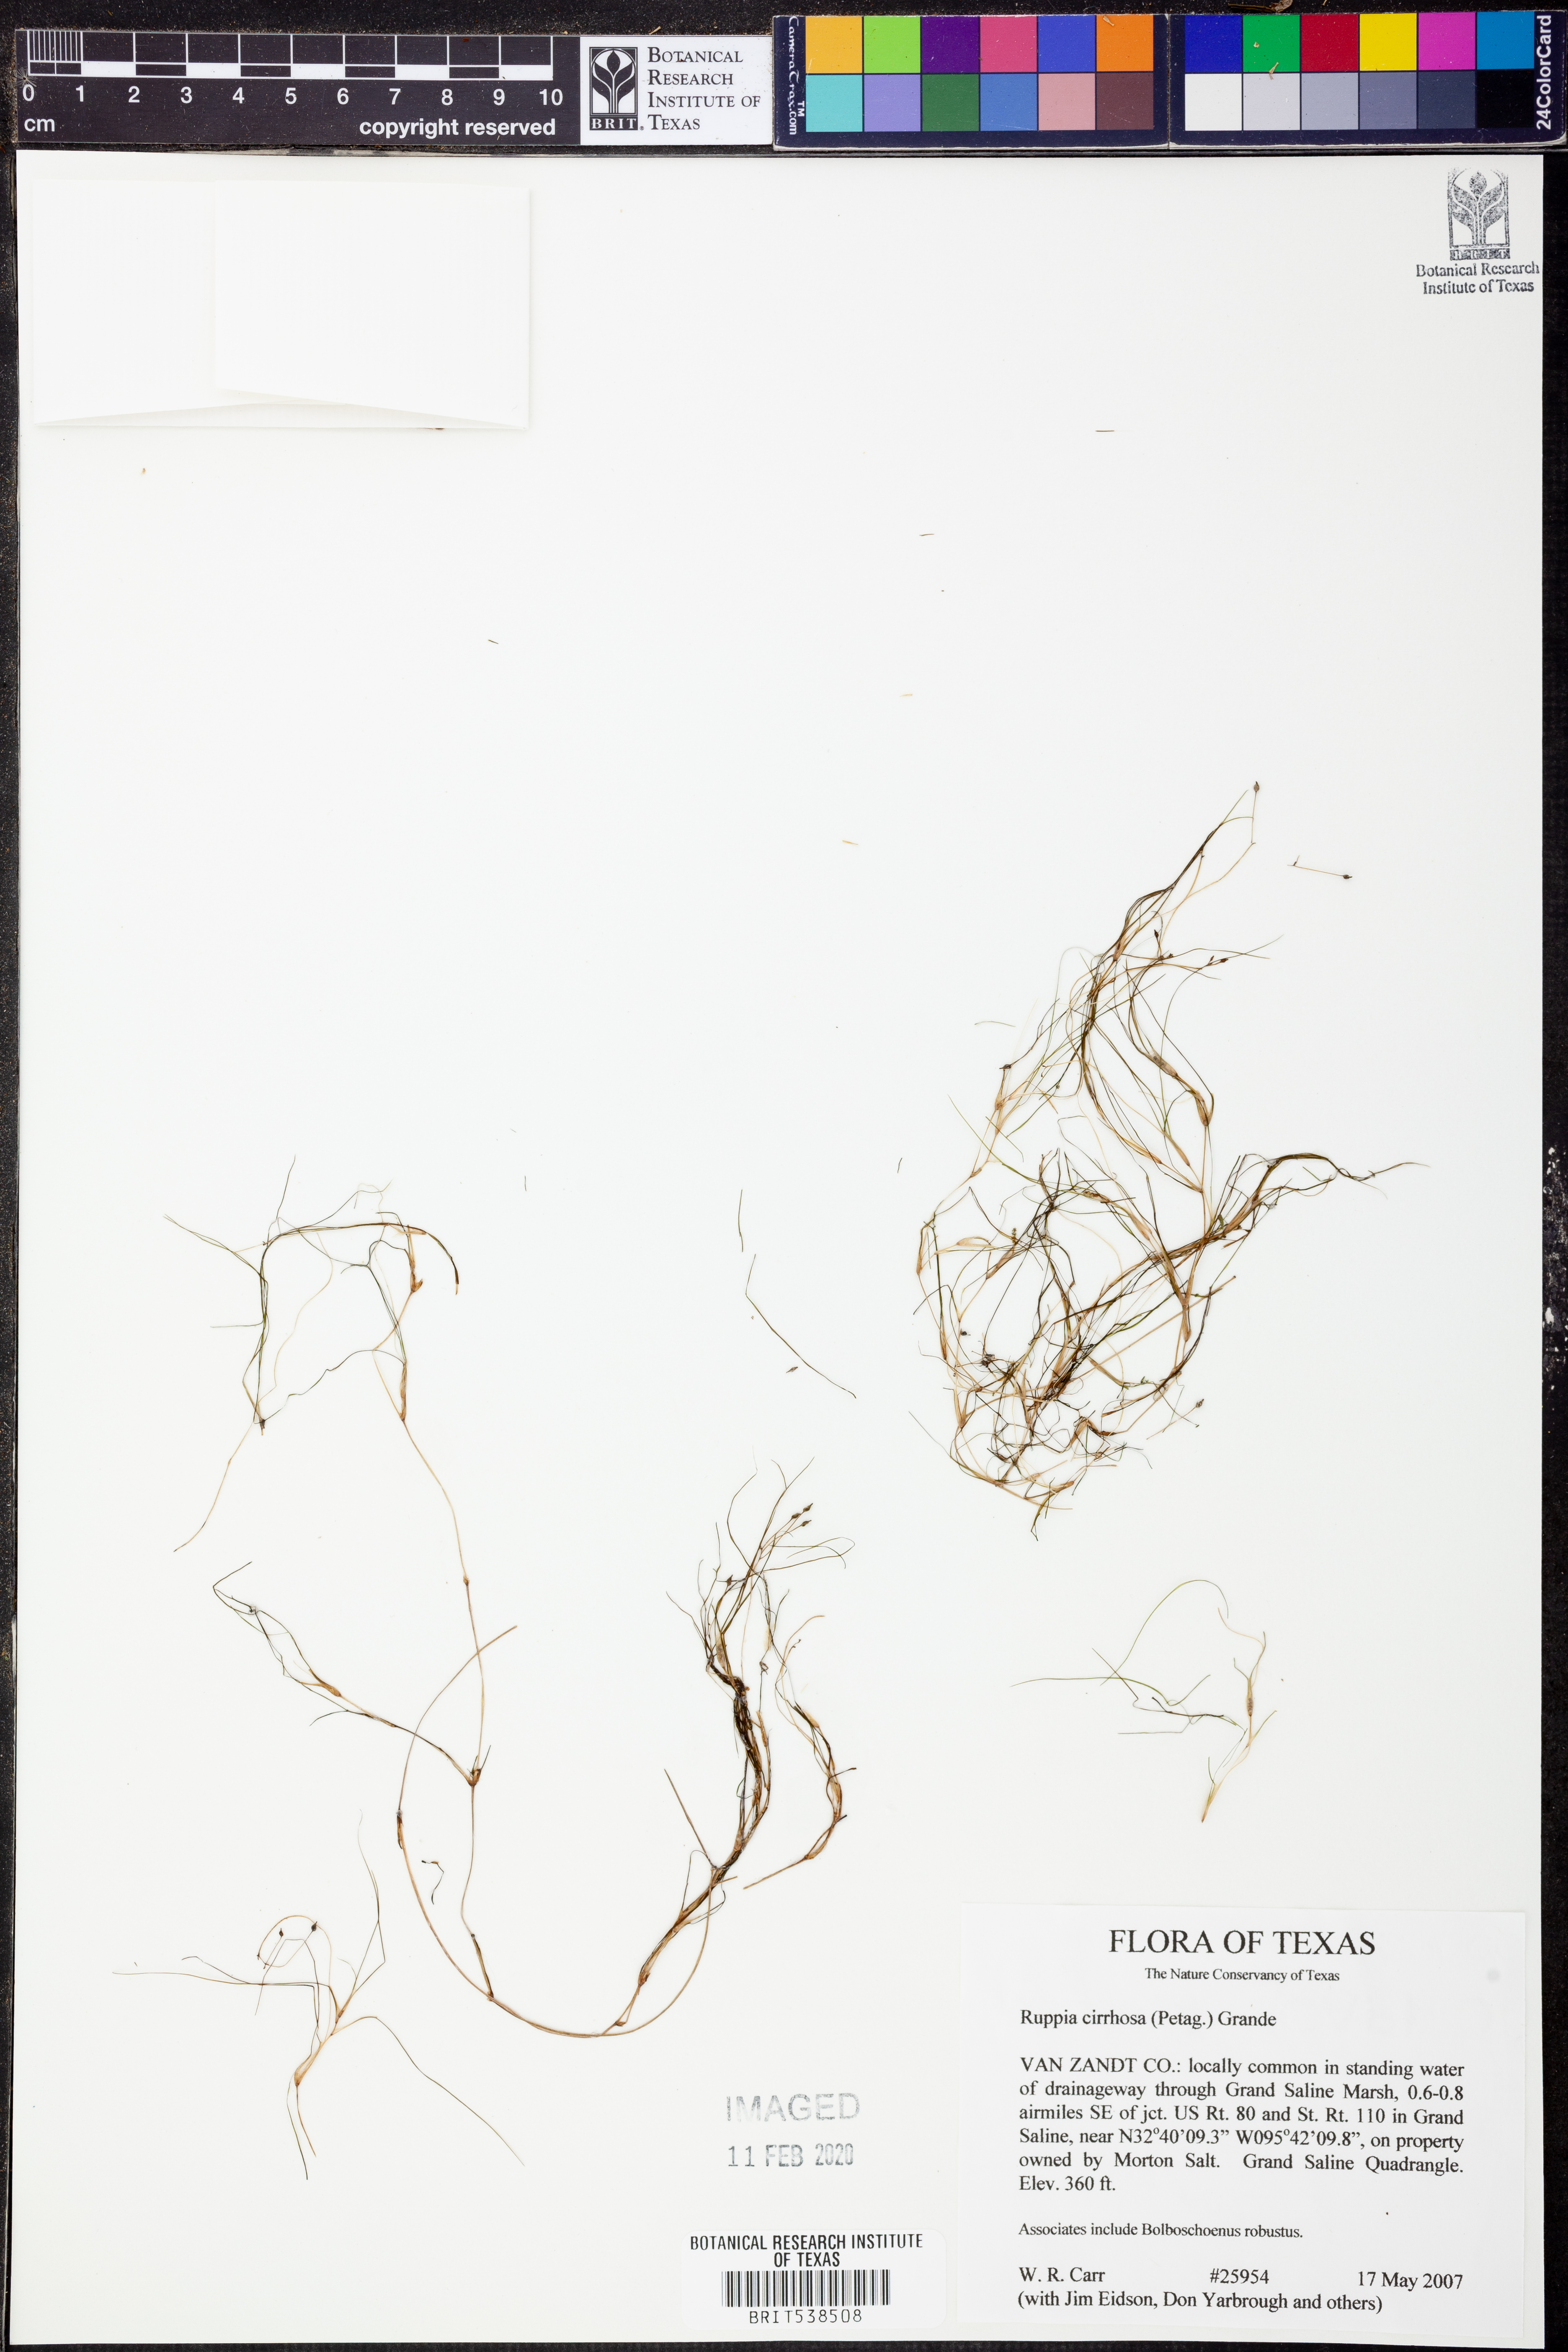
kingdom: Plantae
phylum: Tracheophyta
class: Liliopsida
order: Alismatales
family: Ruppiaceae
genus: Ruppia
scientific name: Ruppia cirrhosa
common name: Spiral tasselweed
